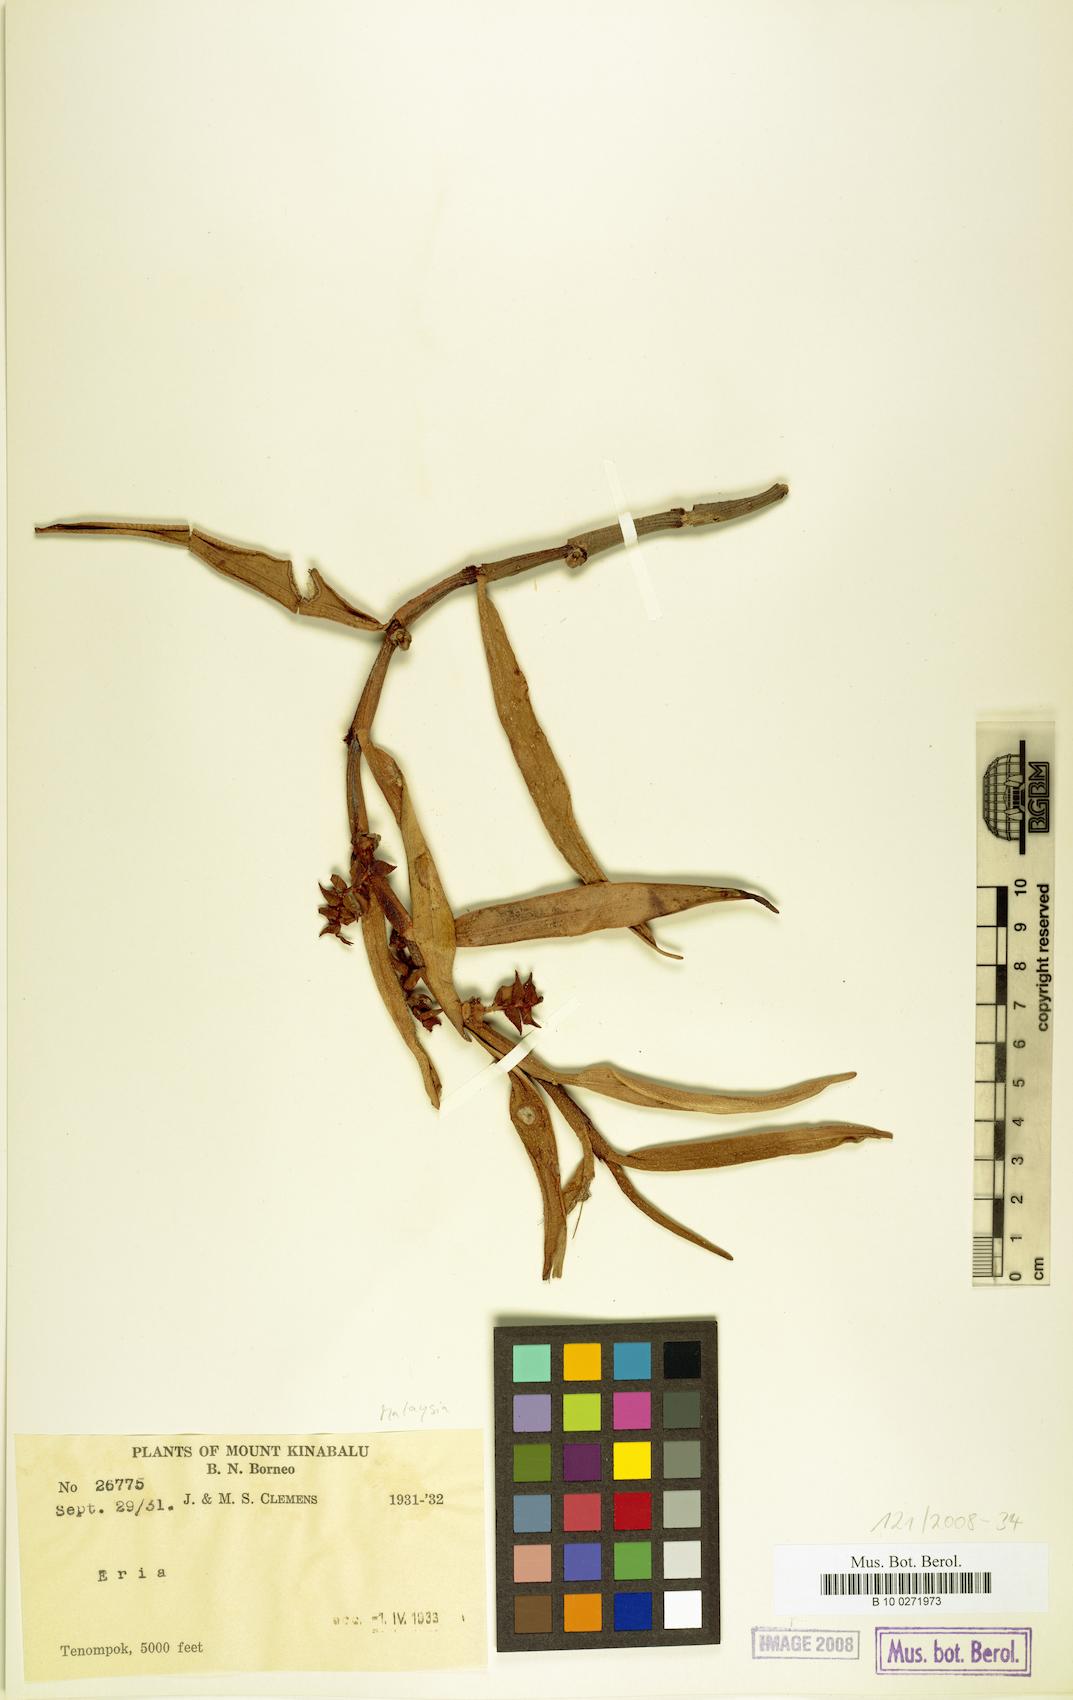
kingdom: Plantae
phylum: Tracheophyta
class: Liliopsida
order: Asparagales
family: Orchidaceae
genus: Eria
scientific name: Eria
